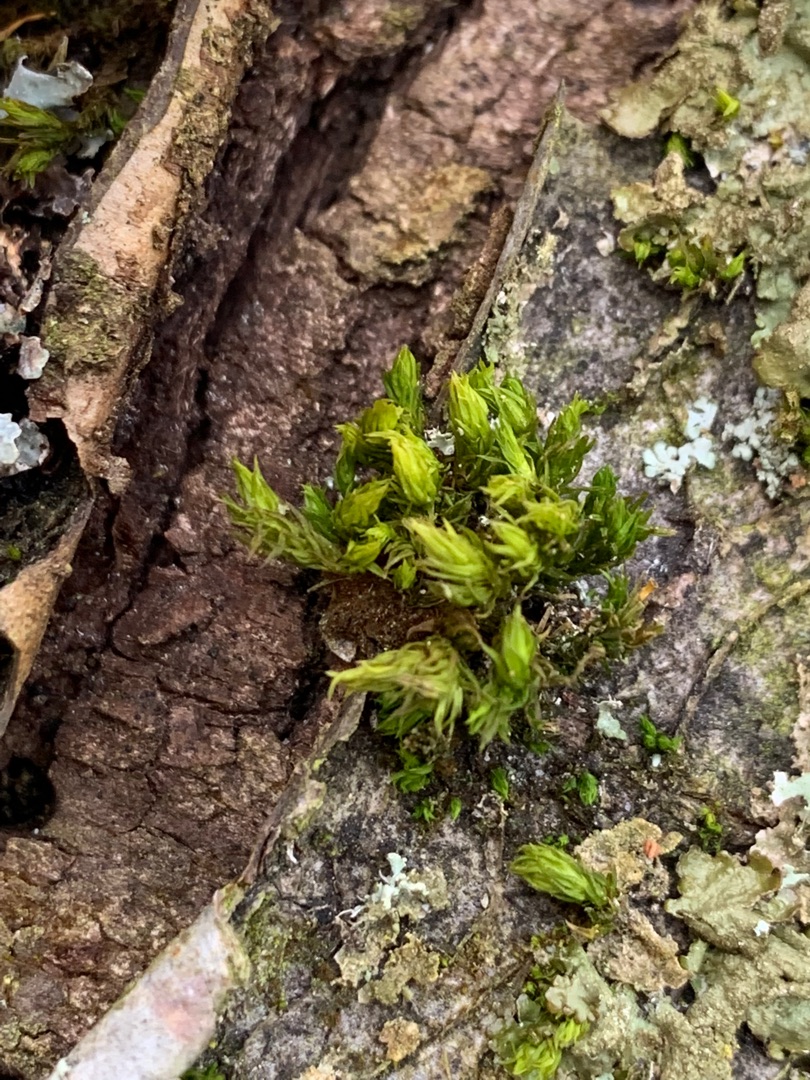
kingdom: Plantae
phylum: Bryophyta
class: Bryopsida
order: Orthotrichales
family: Orthotrichaceae
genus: Orthotrichum
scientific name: Orthotrichum
